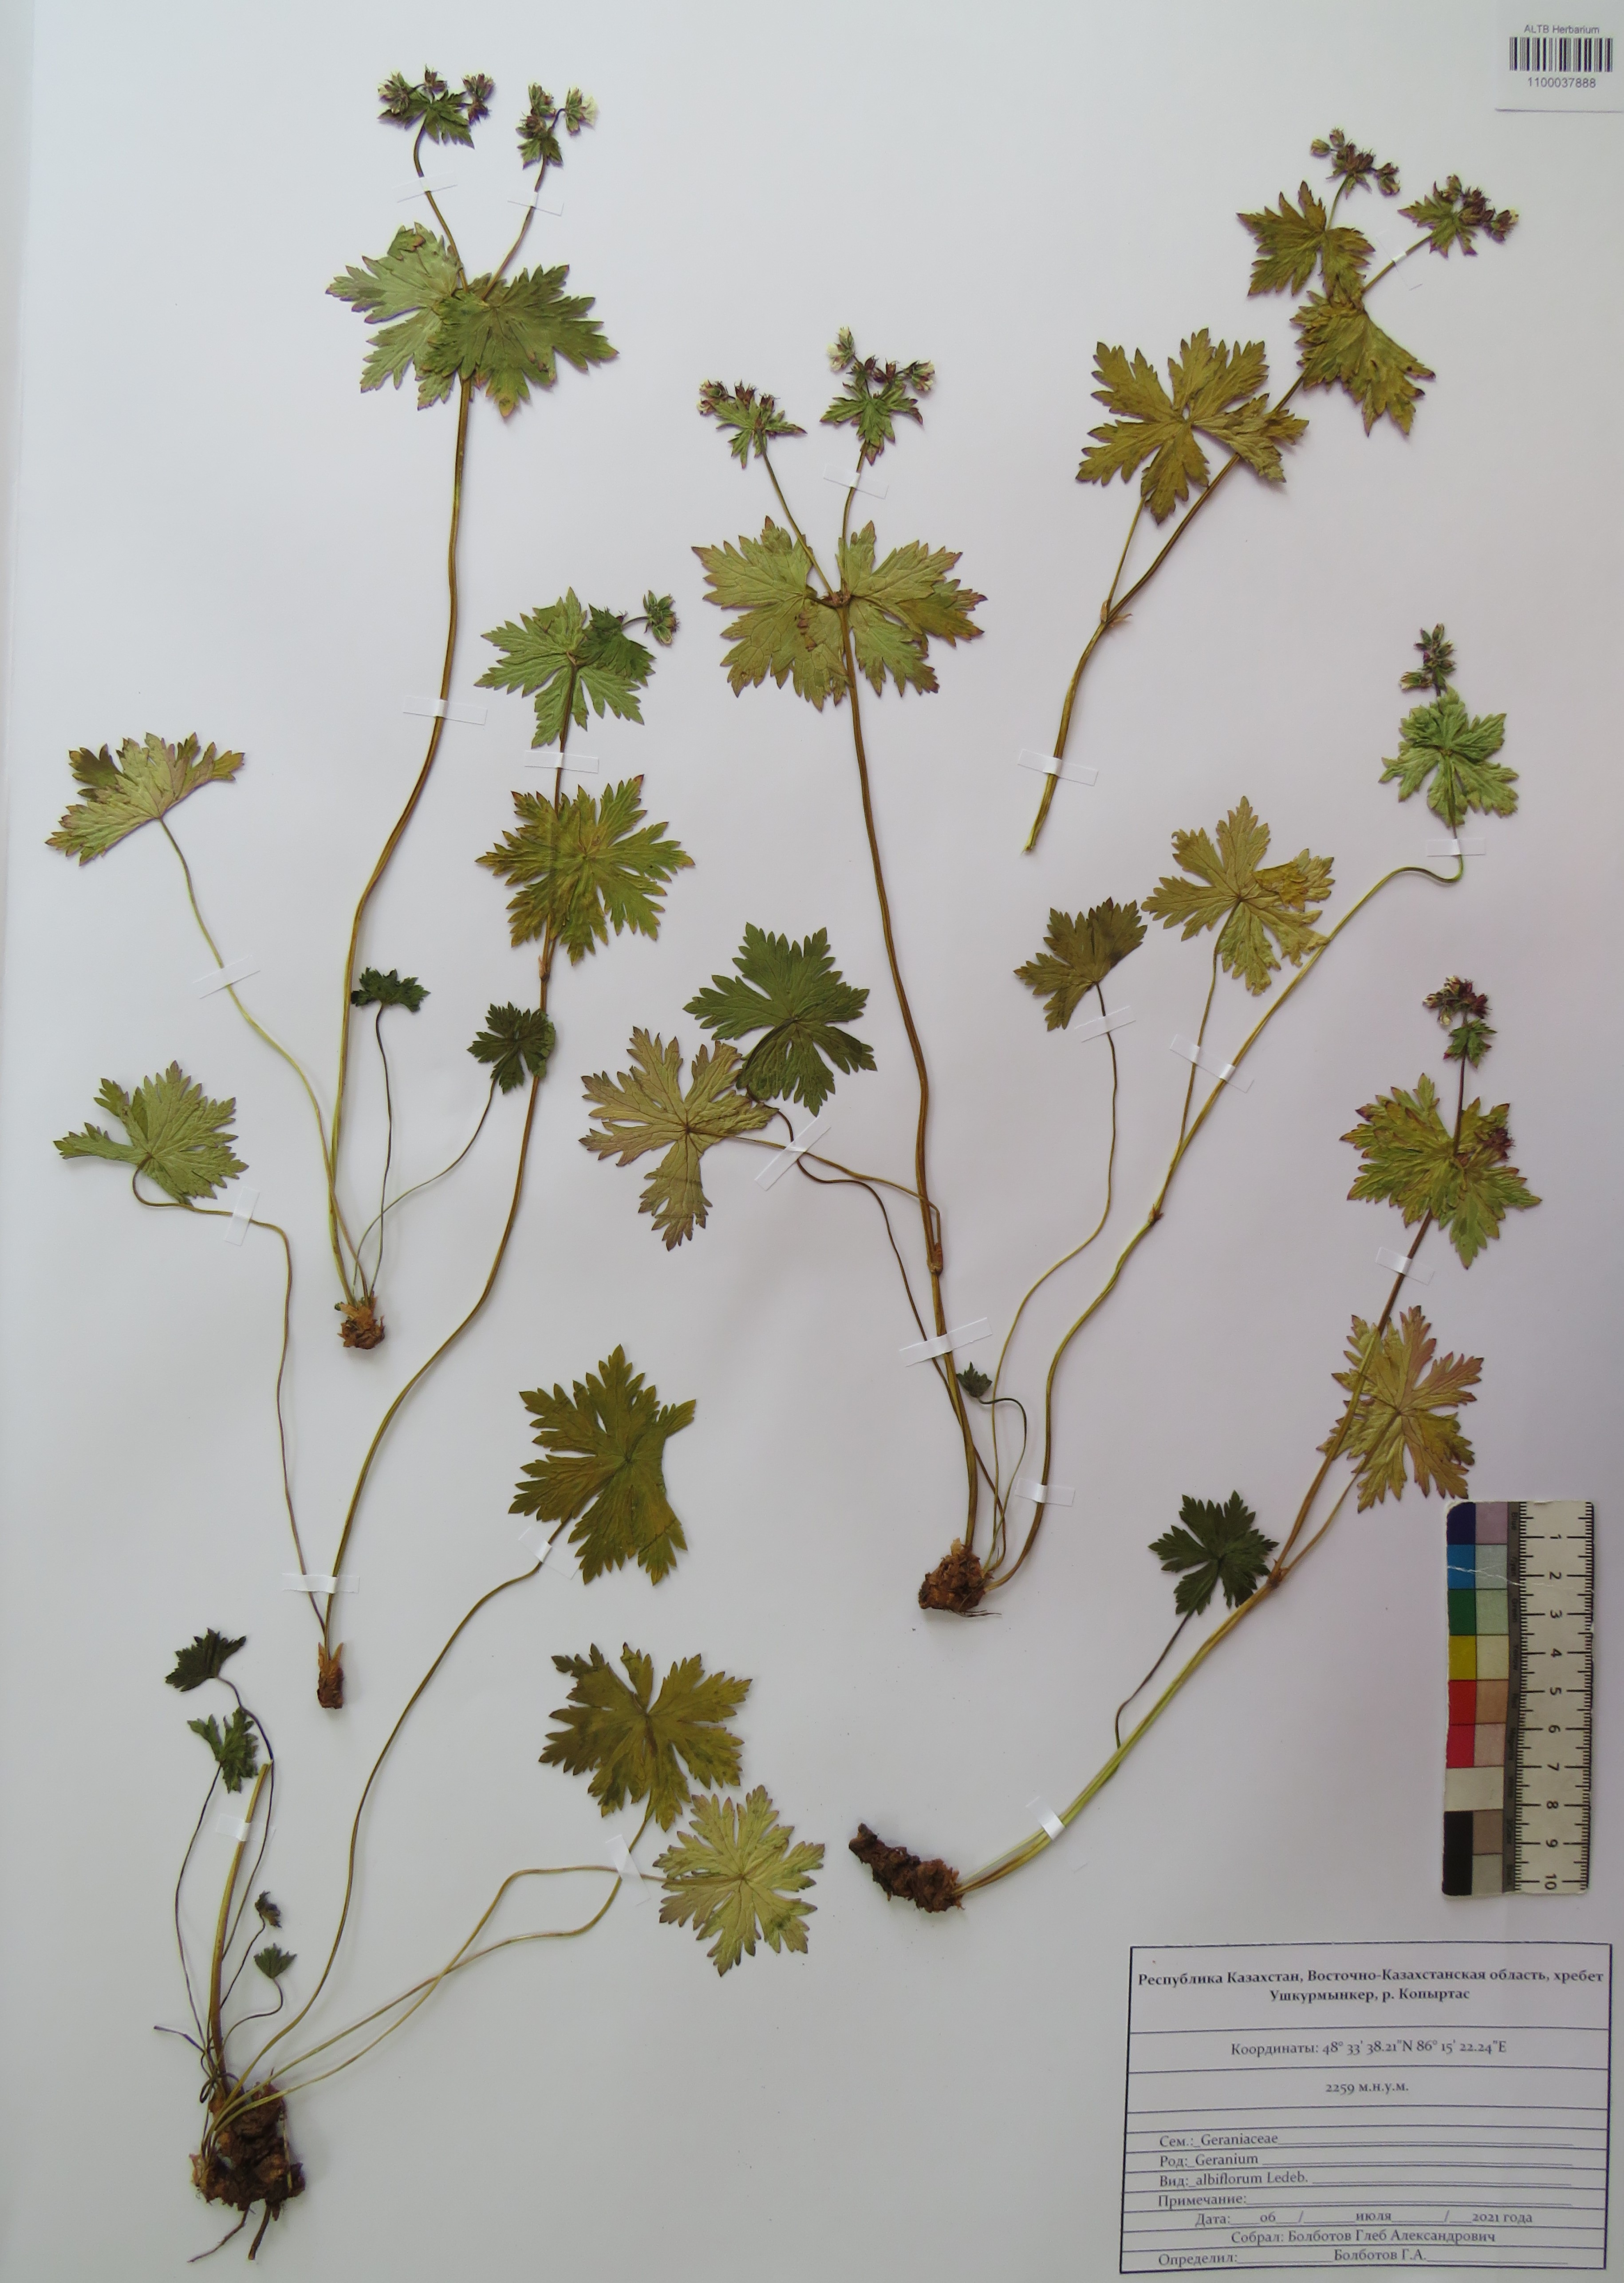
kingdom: Plantae
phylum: Tracheophyta
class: Magnoliopsida
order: Geraniales
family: Geraniaceae
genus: Geranium
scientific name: Geranium albiflorum
